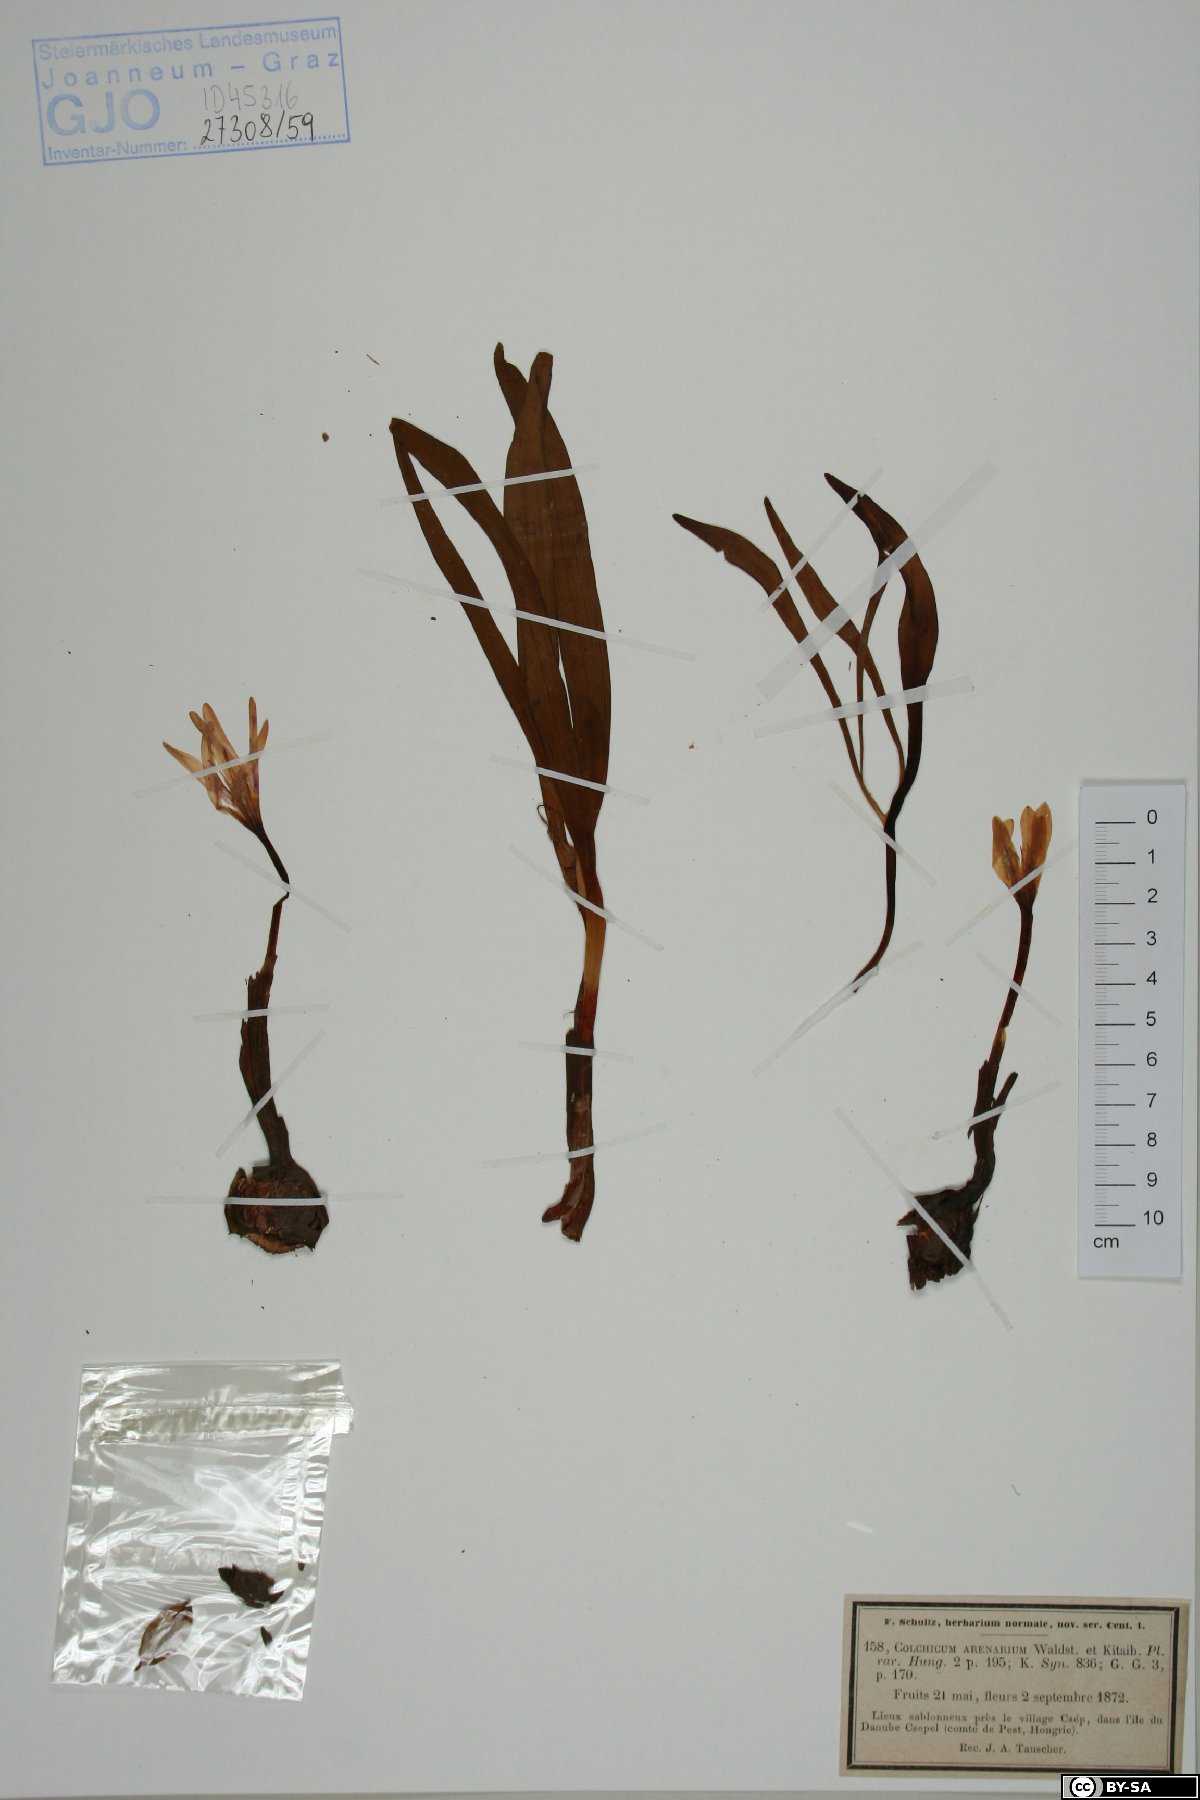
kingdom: Plantae
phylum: Tracheophyta
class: Liliopsida
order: Liliales
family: Colchicaceae
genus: Colchicum
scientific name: Colchicum arenarium
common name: Sand saffron
